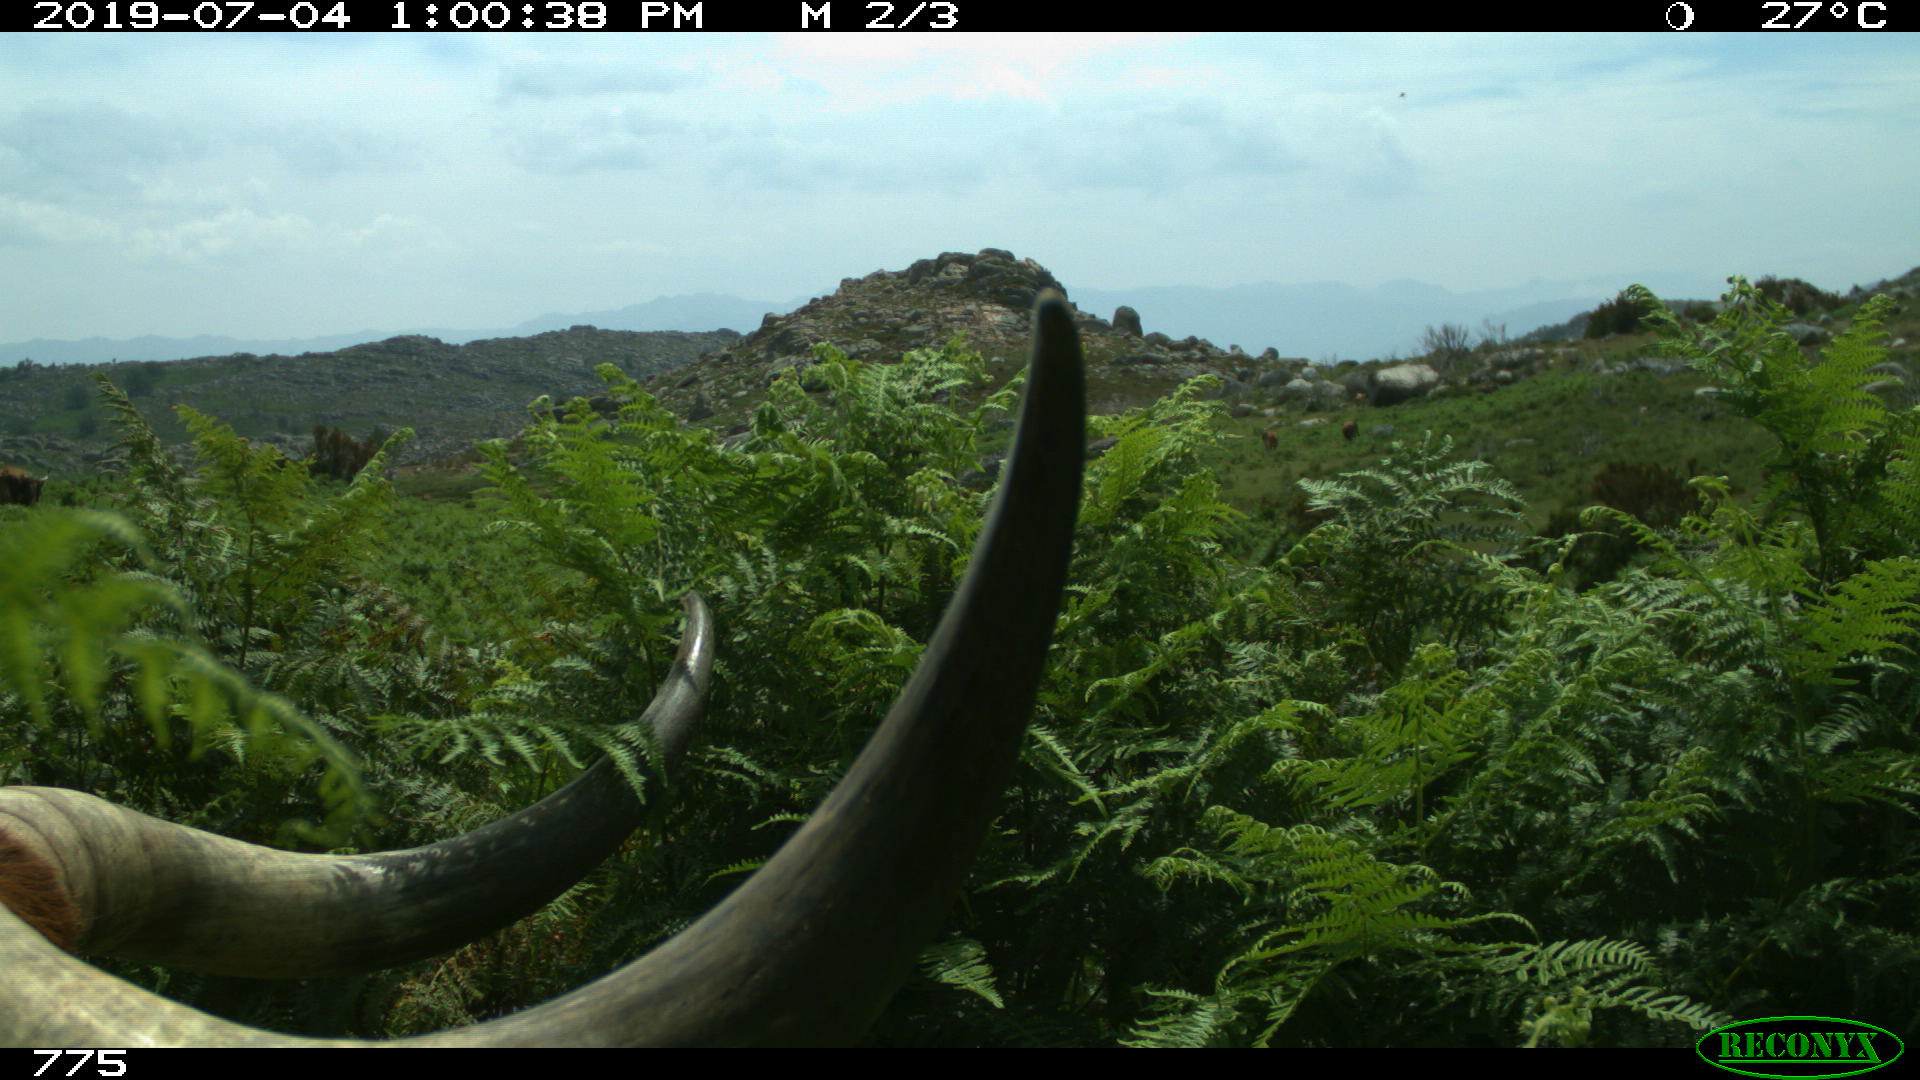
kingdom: Animalia
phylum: Chordata
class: Mammalia
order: Artiodactyla
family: Bovidae
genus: Bos
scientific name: Bos taurus
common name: Domesticated cattle
